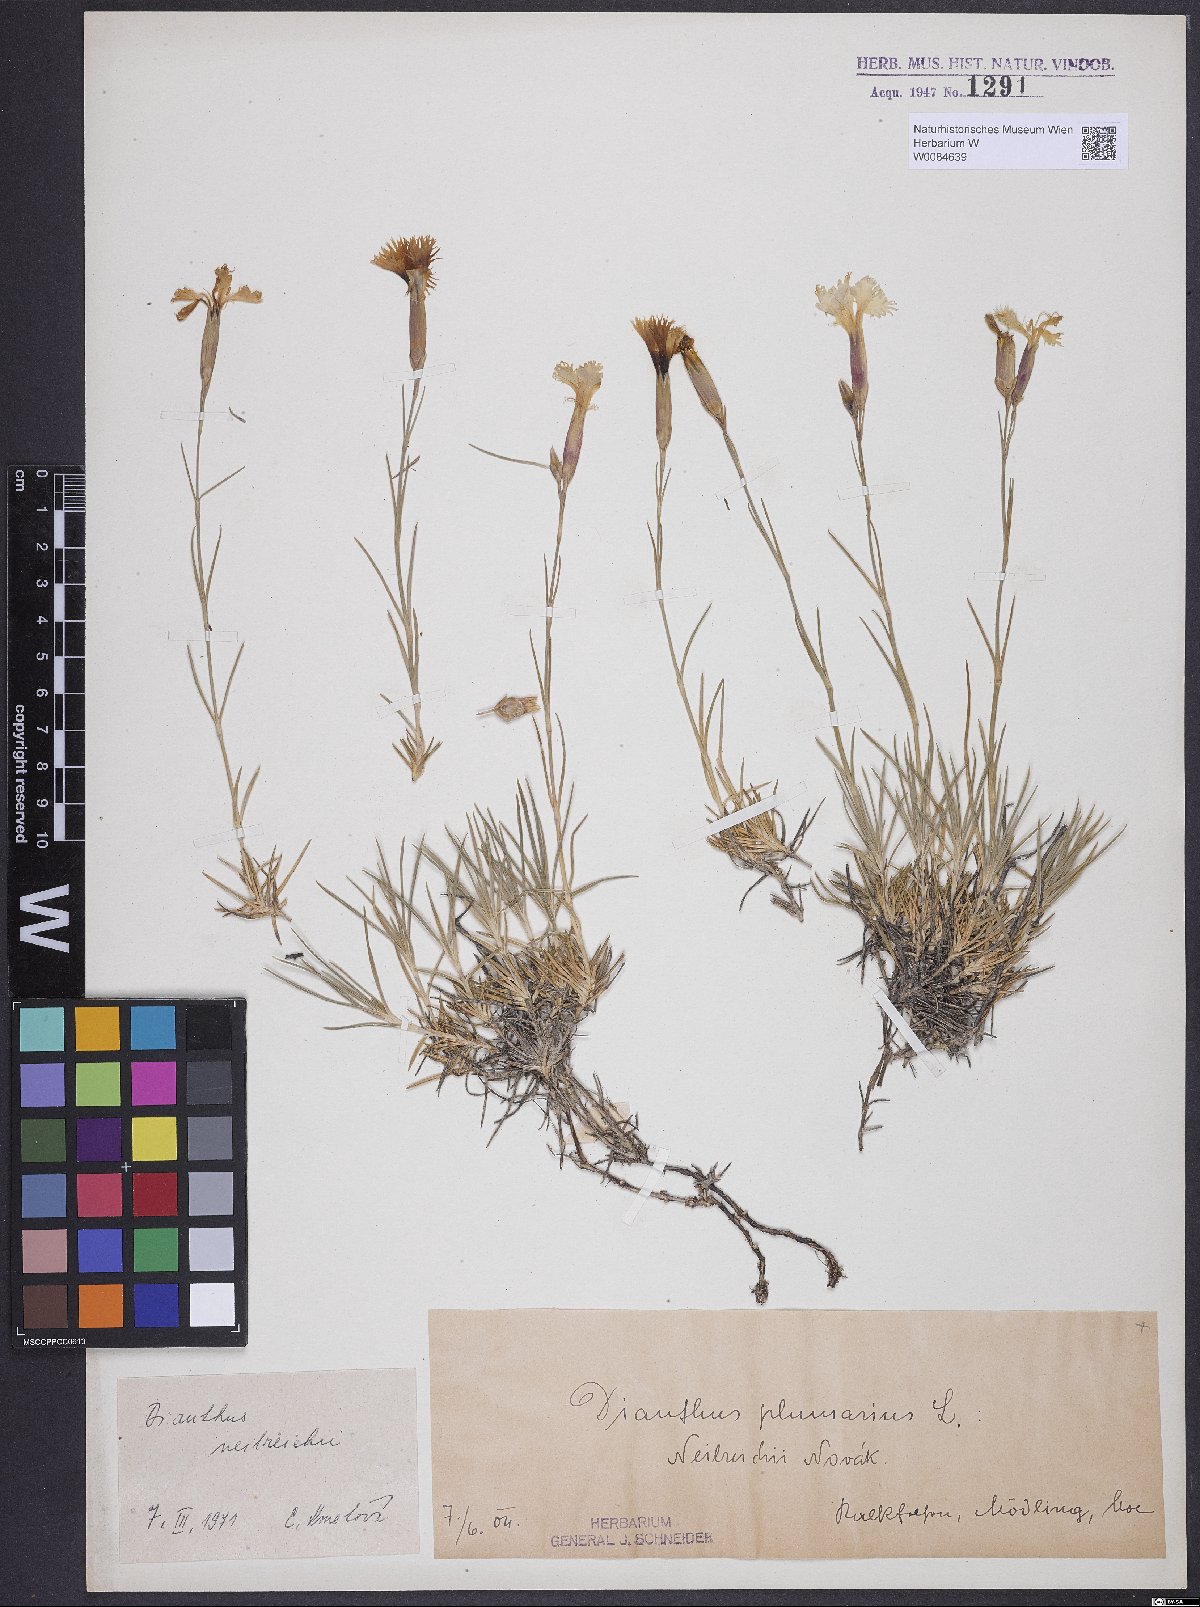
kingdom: Plantae
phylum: Tracheophyta
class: Magnoliopsida
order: Caryophyllales
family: Caryophyllaceae
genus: Dianthus
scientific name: Dianthus plumarius
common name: Pink
